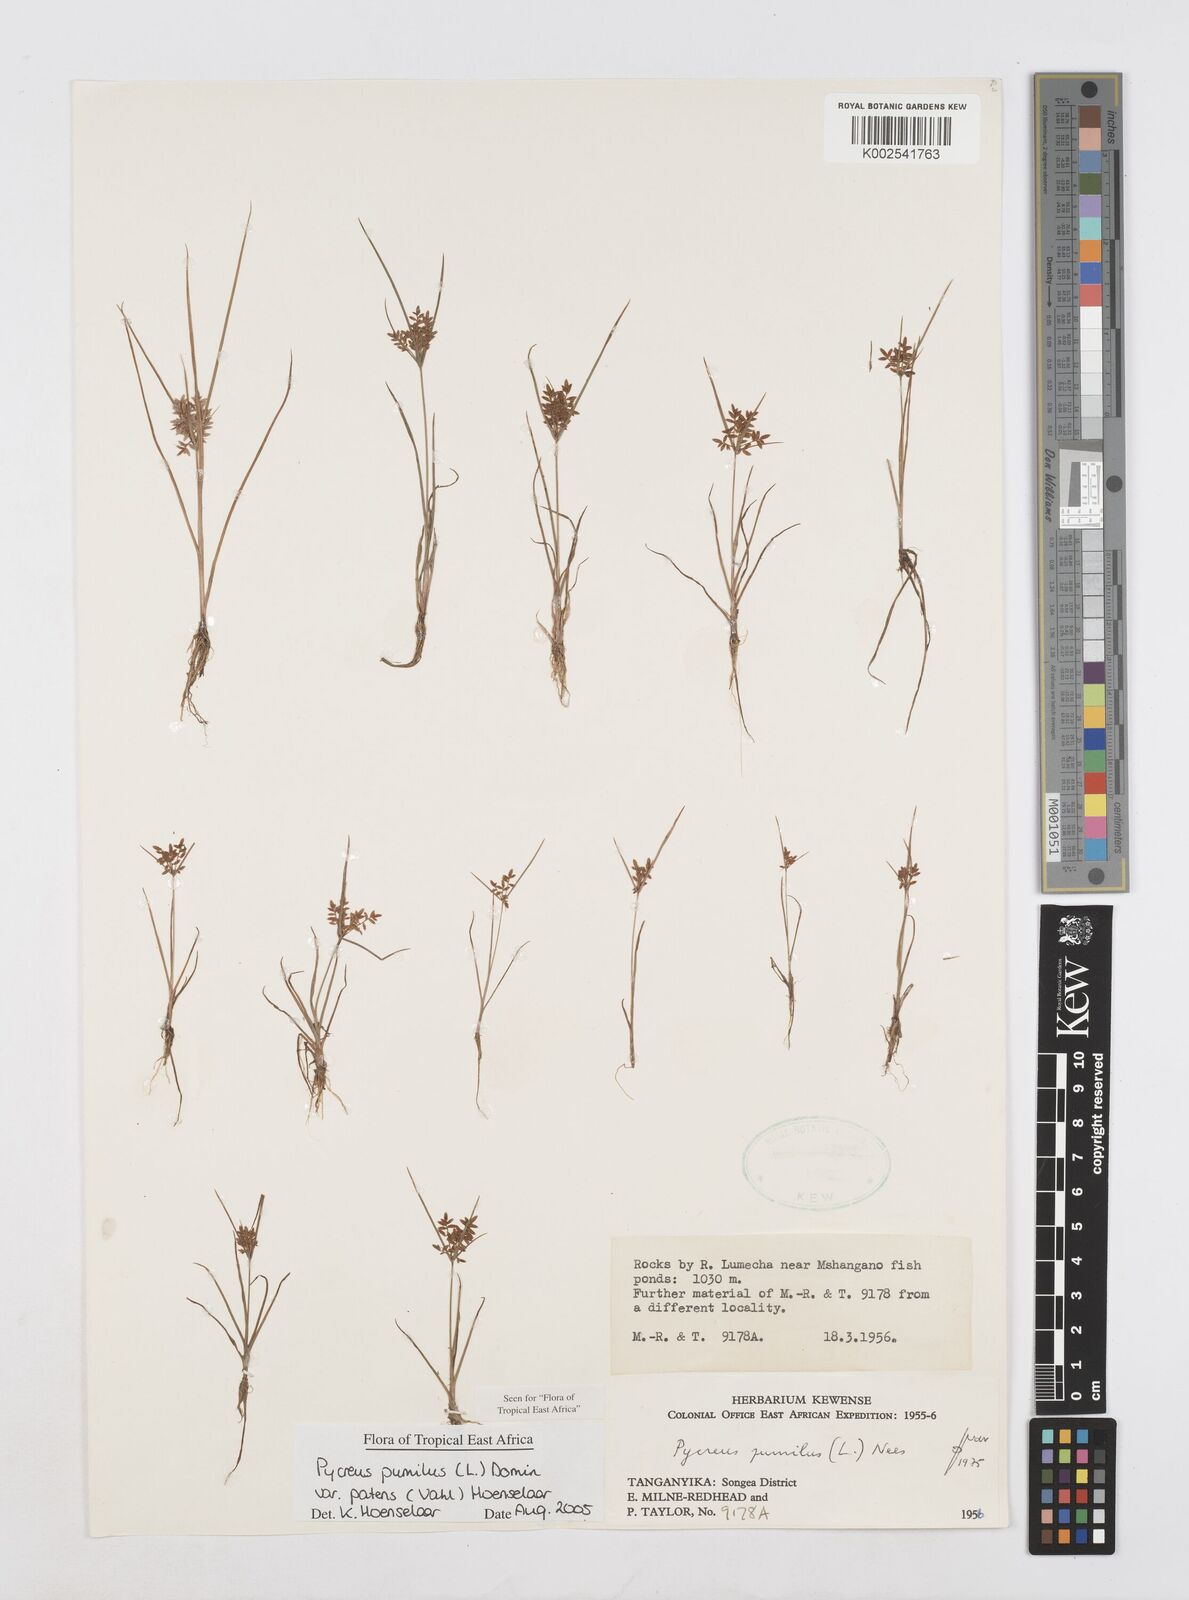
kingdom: Plantae
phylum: Tracheophyta
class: Liliopsida
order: Poales
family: Cyperaceae
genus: Cyperus
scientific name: Cyperus pumilus
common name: Low flatsedge
